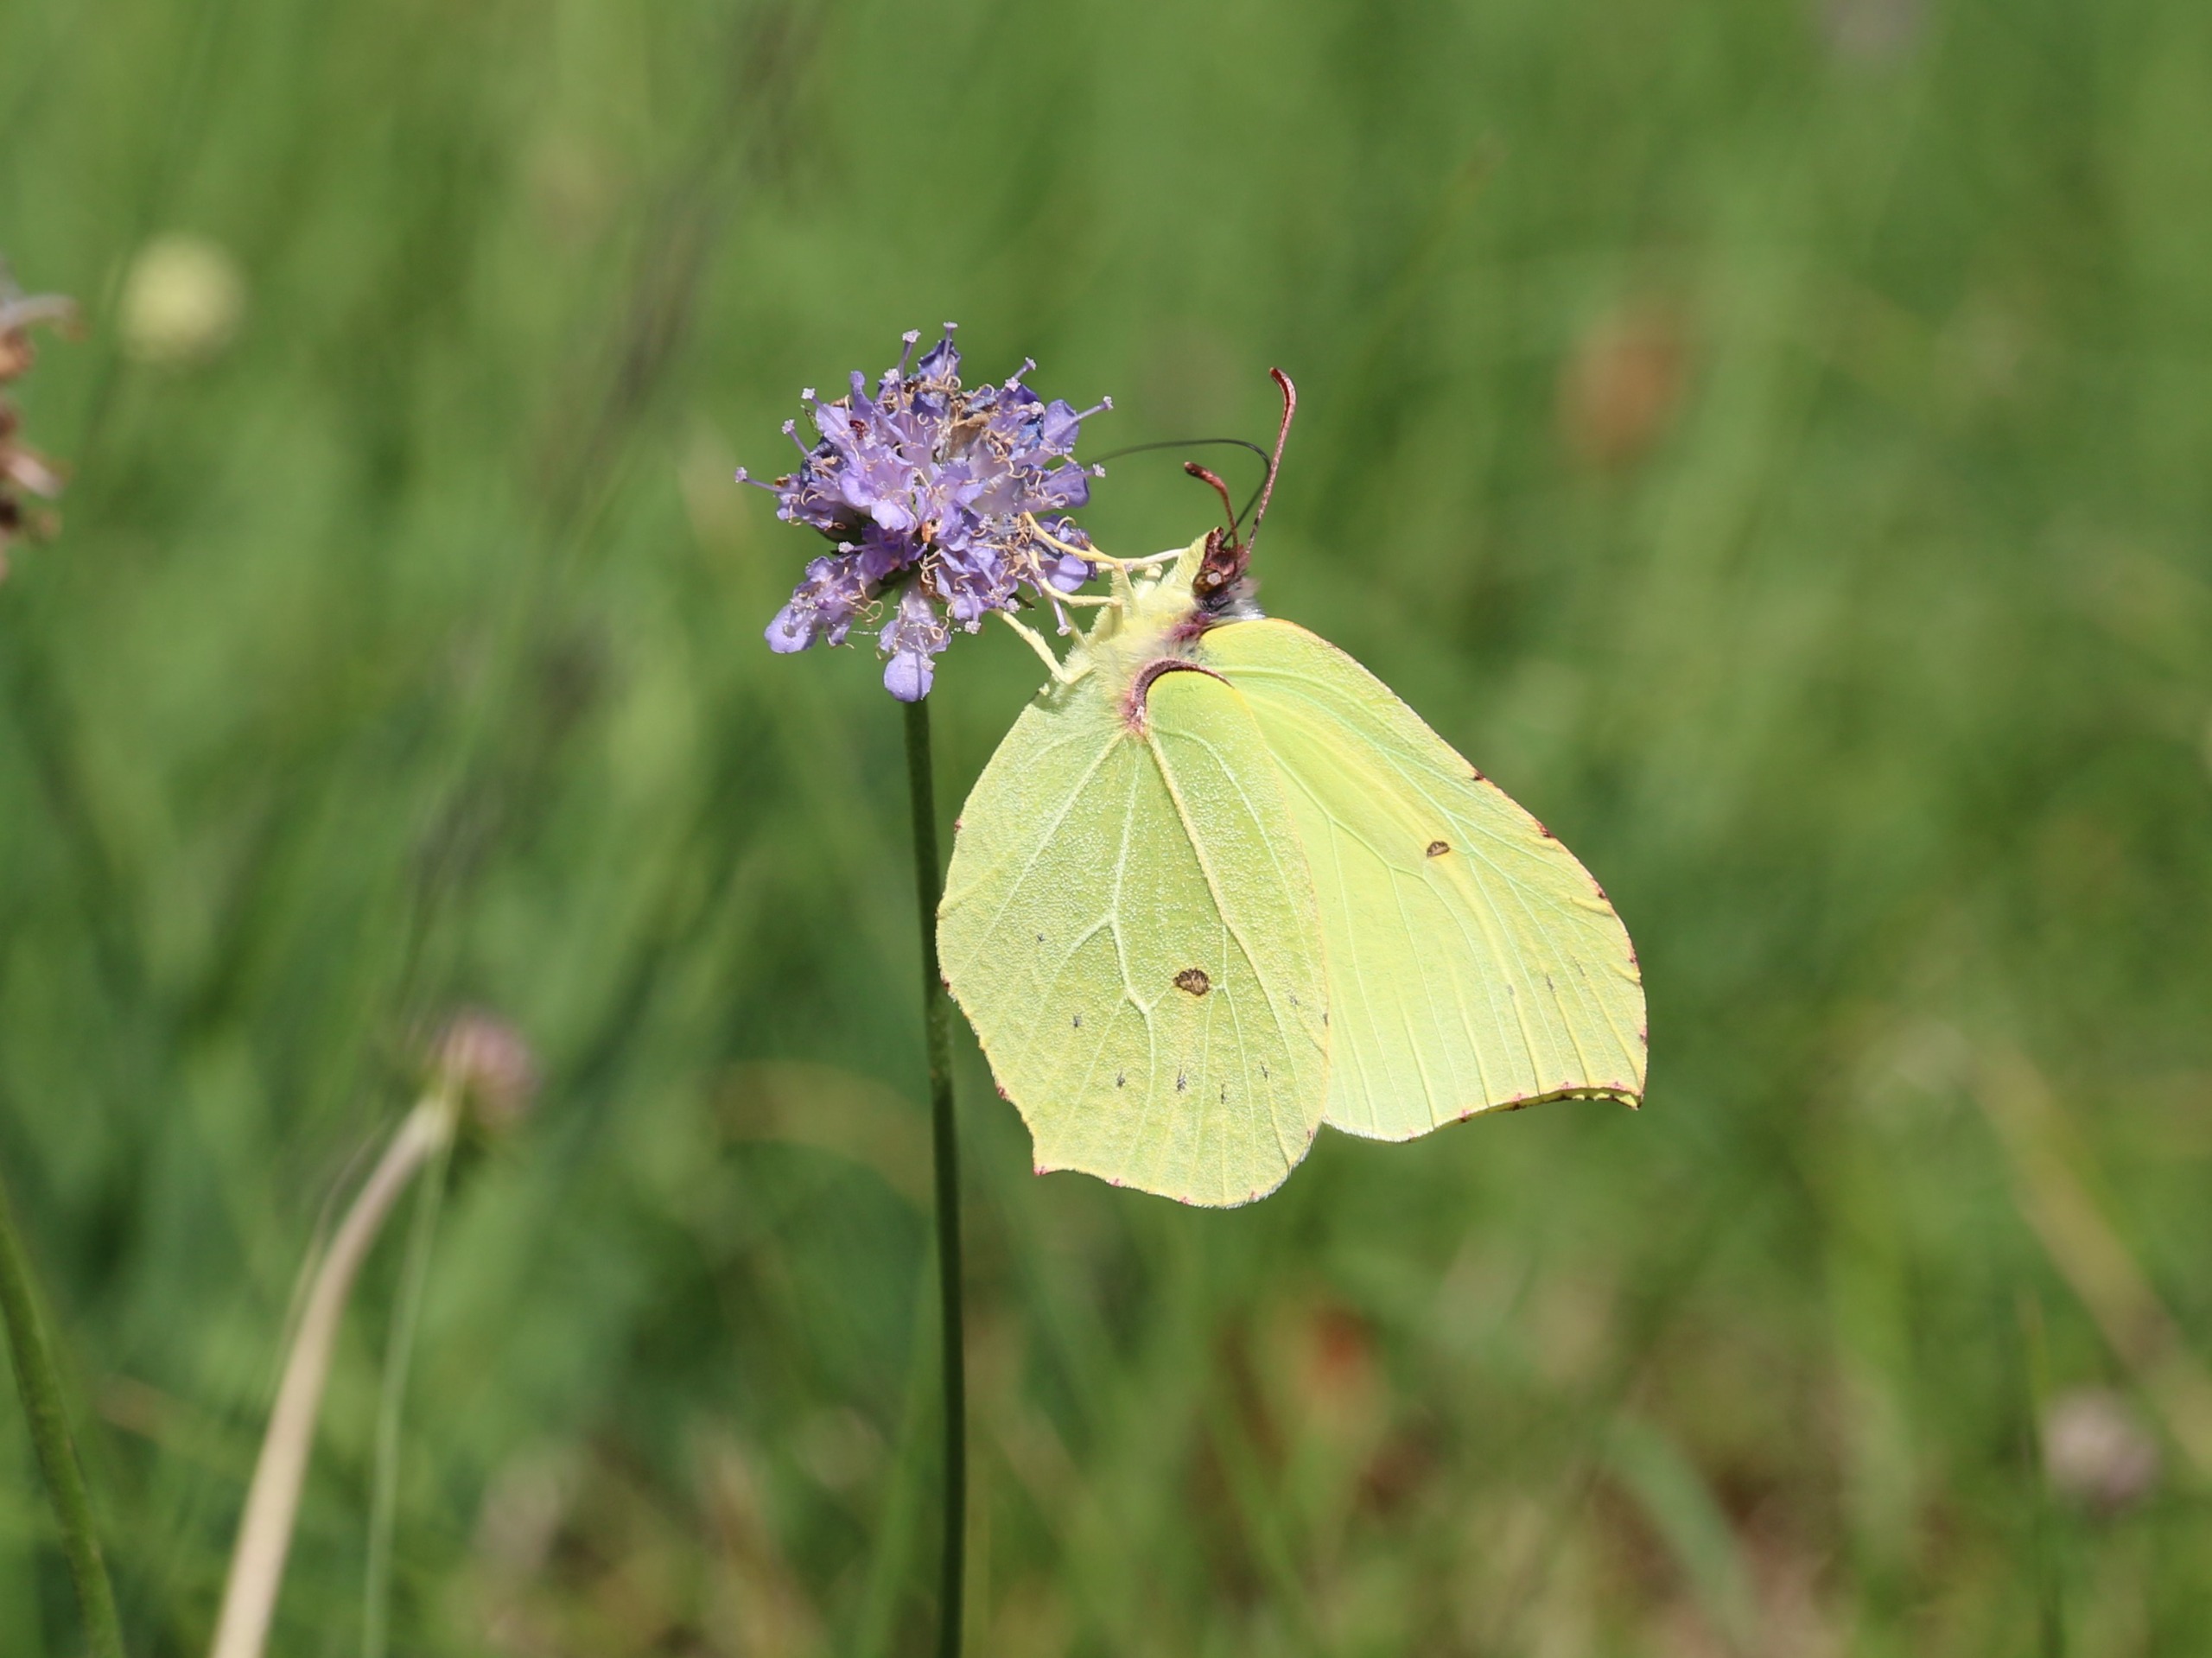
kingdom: Animalia
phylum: Arthropoda
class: Insecta
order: Lepidoptera
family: Pieridae
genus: Gonepteryx
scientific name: Gonepteryx rhamni
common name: Citronsommerfugl
